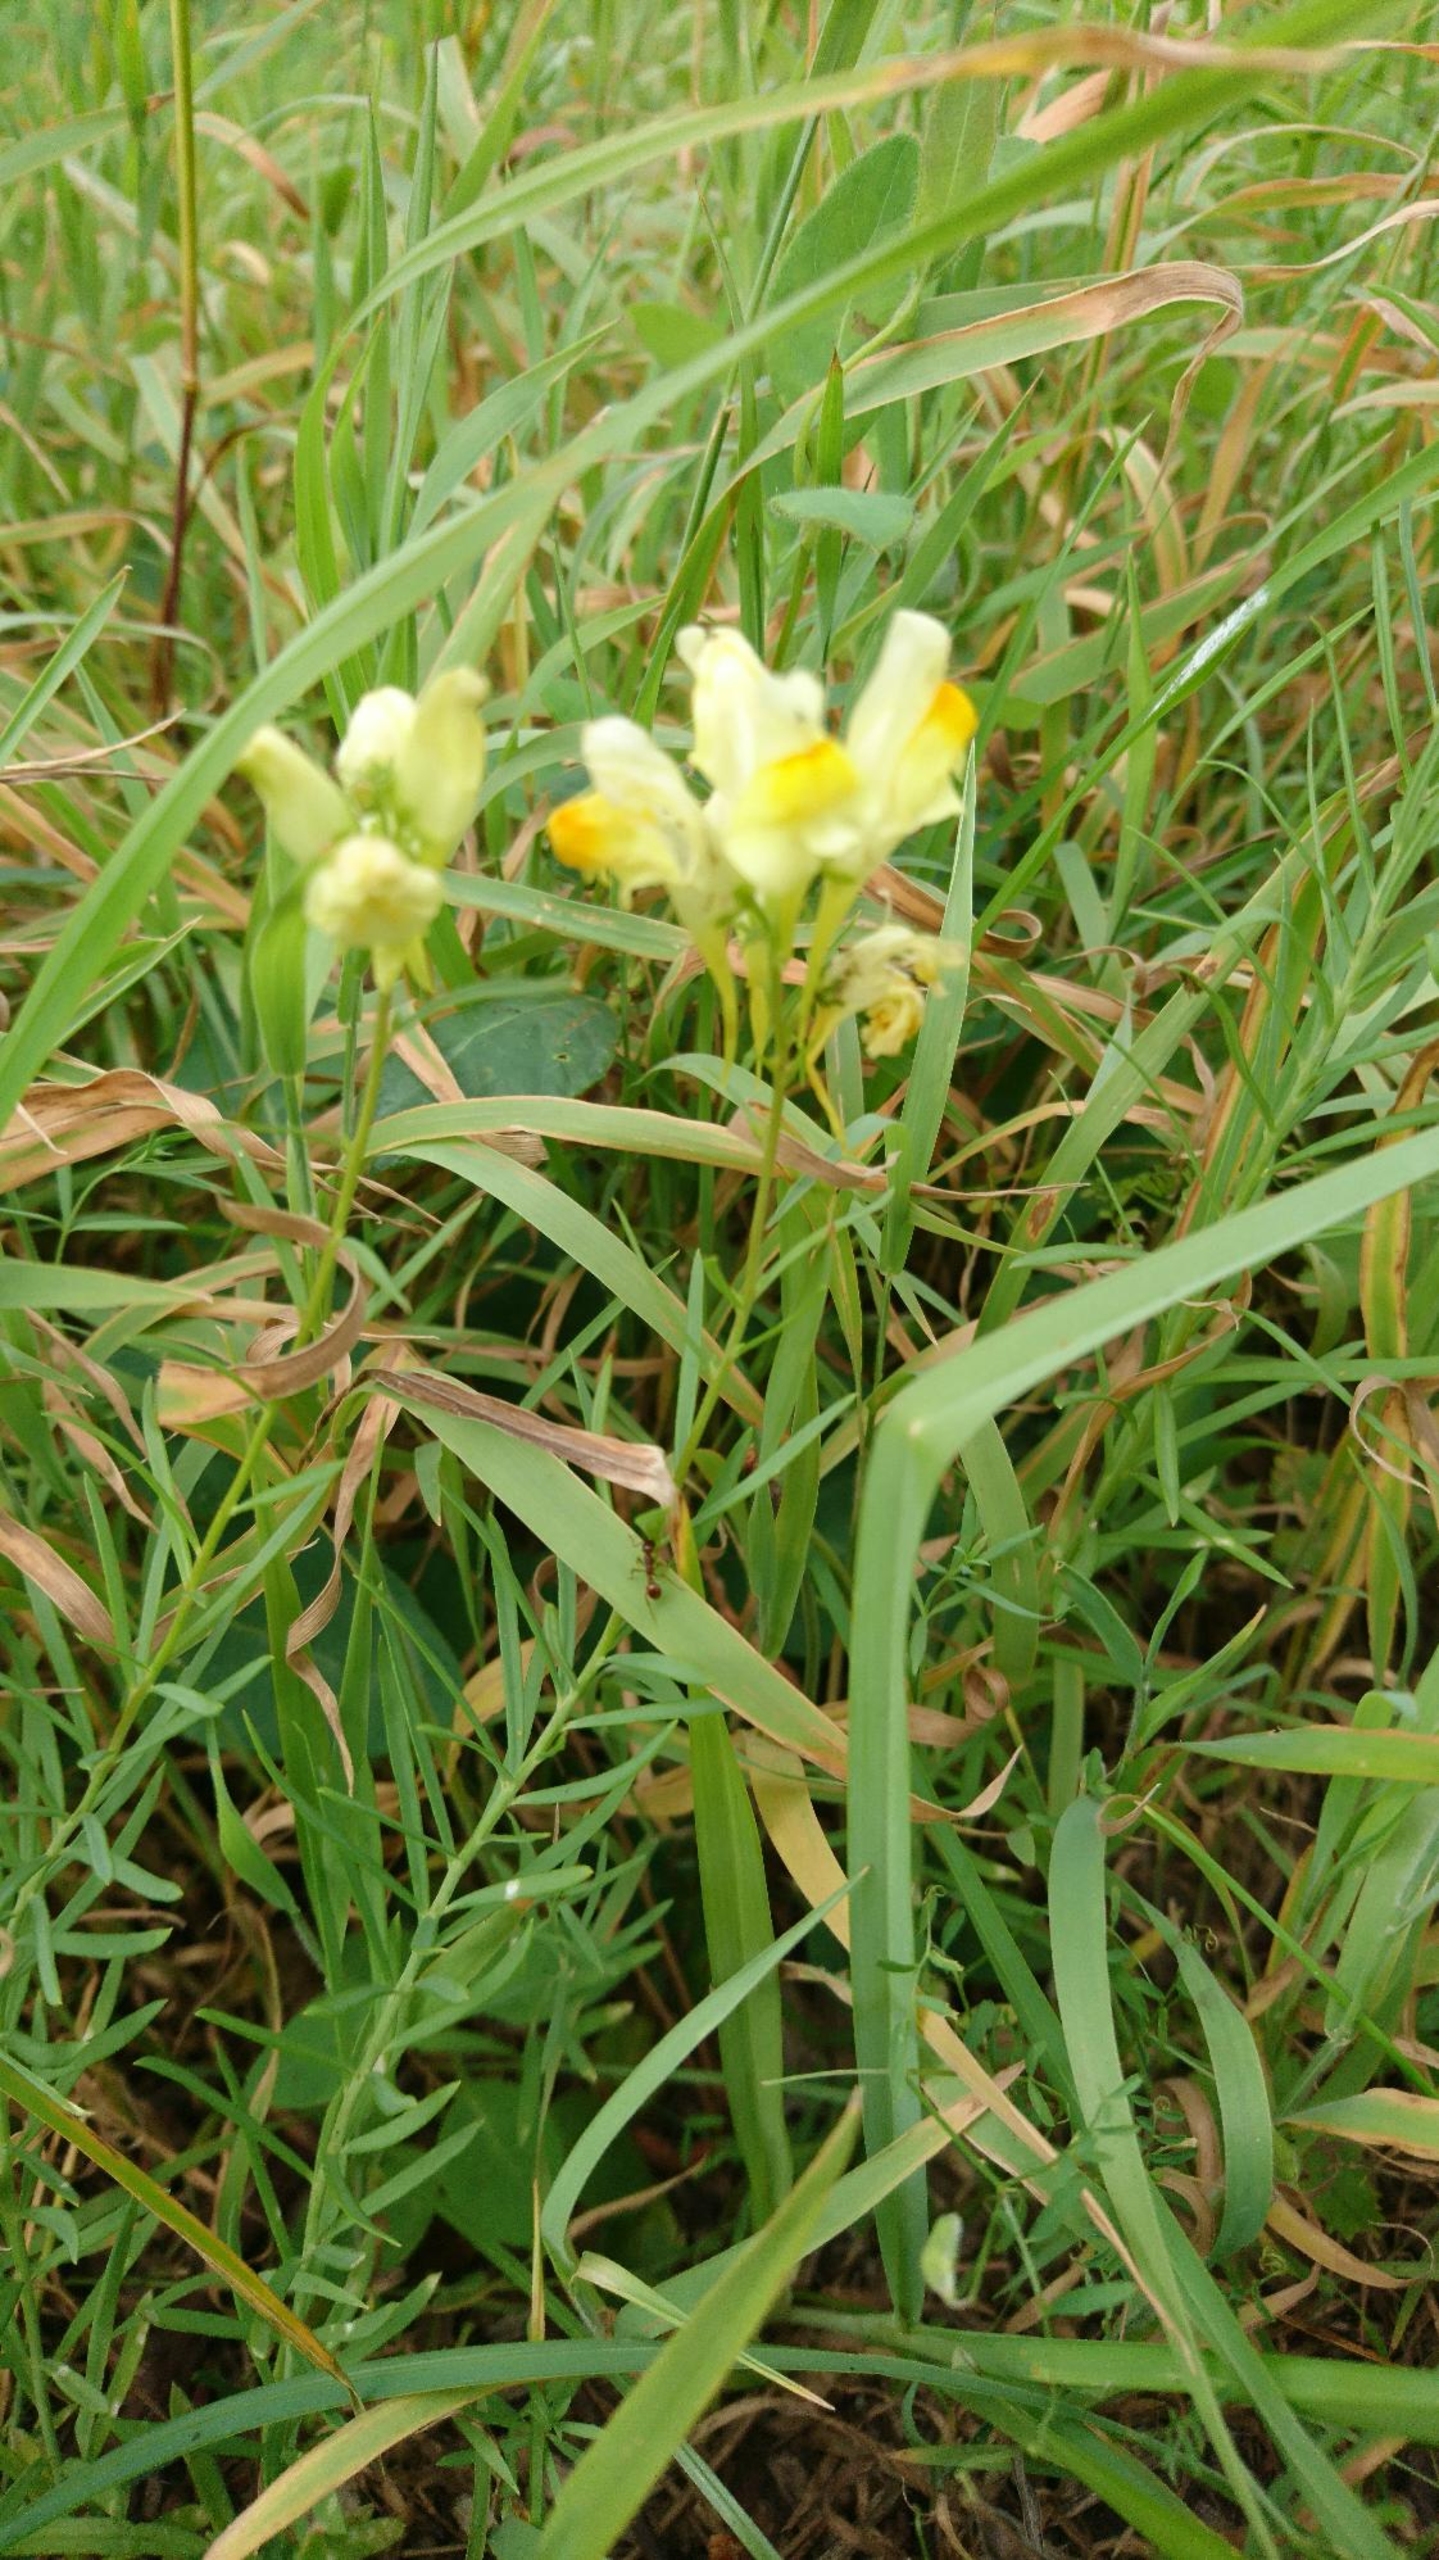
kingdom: Plantae
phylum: Tracheophyta
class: Magnoliopsida
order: Lamiales
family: Plantaginaceae
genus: Linaria
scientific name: Linaria vulgaris
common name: Almindelig torskemund
